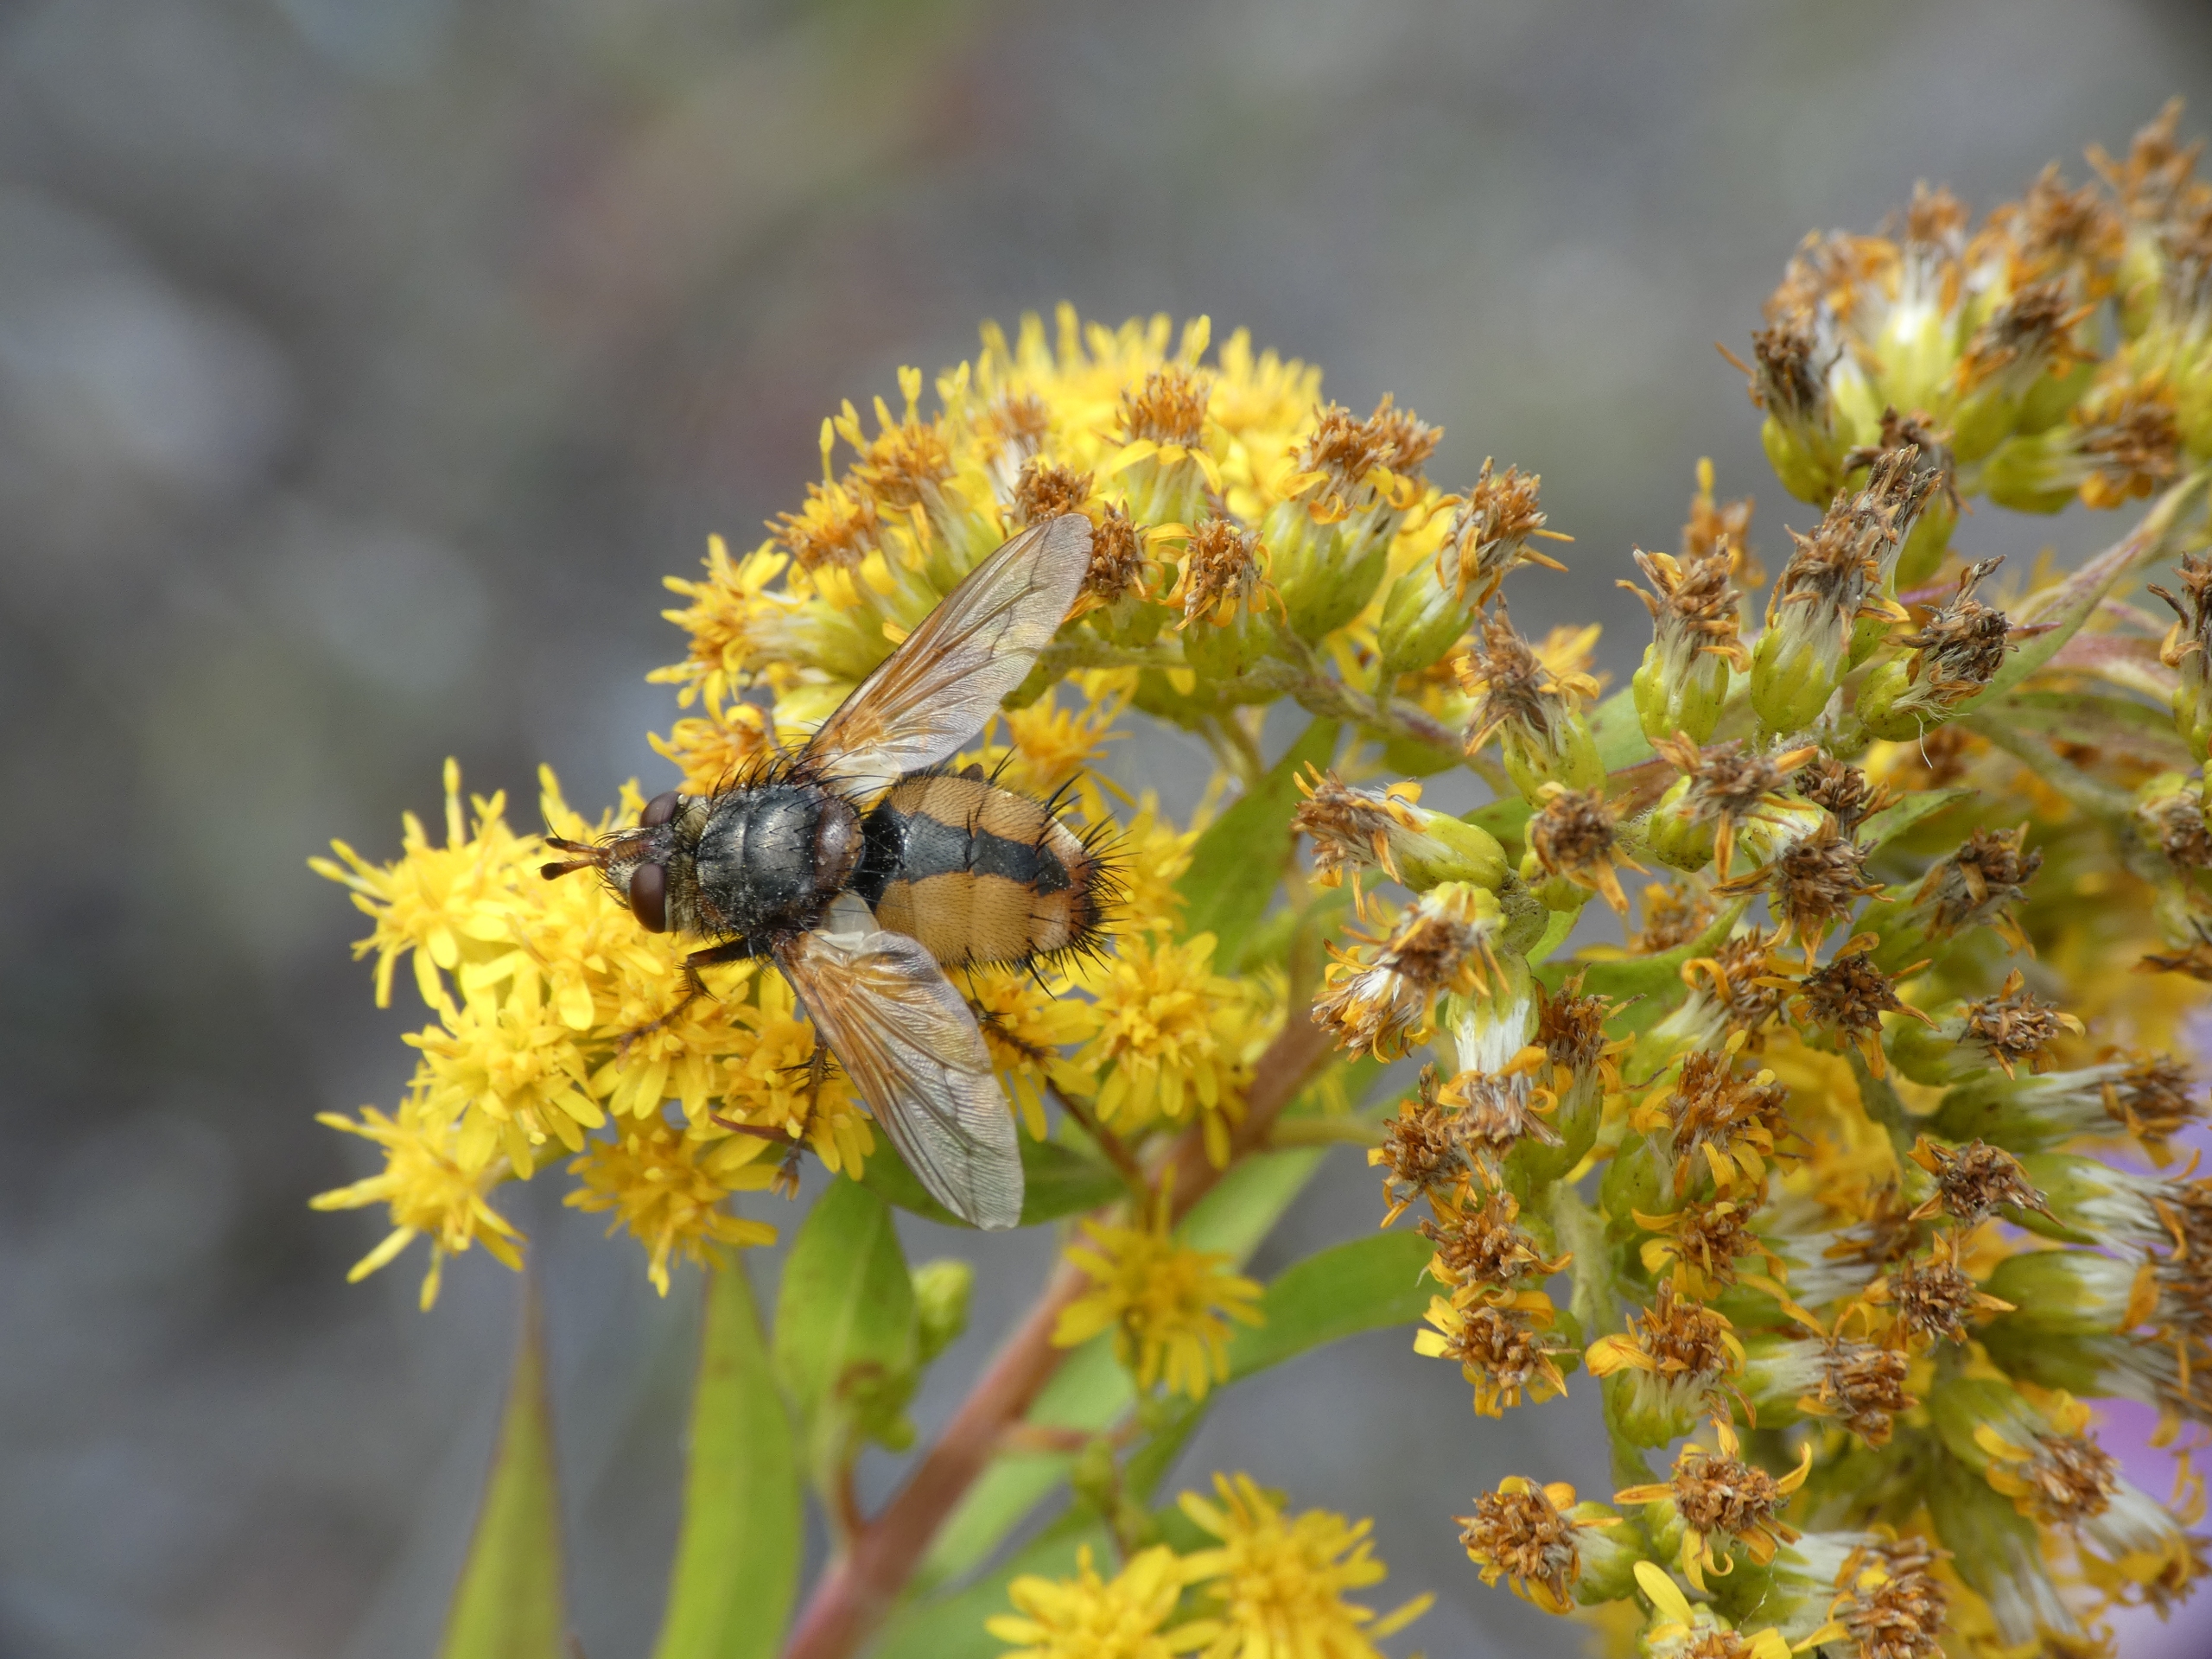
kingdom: Animalia
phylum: Arthropoda
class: Insecta
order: Diptera
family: Tachinidae
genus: Tachina
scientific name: Tachina fera
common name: Mellemfluen oskar
